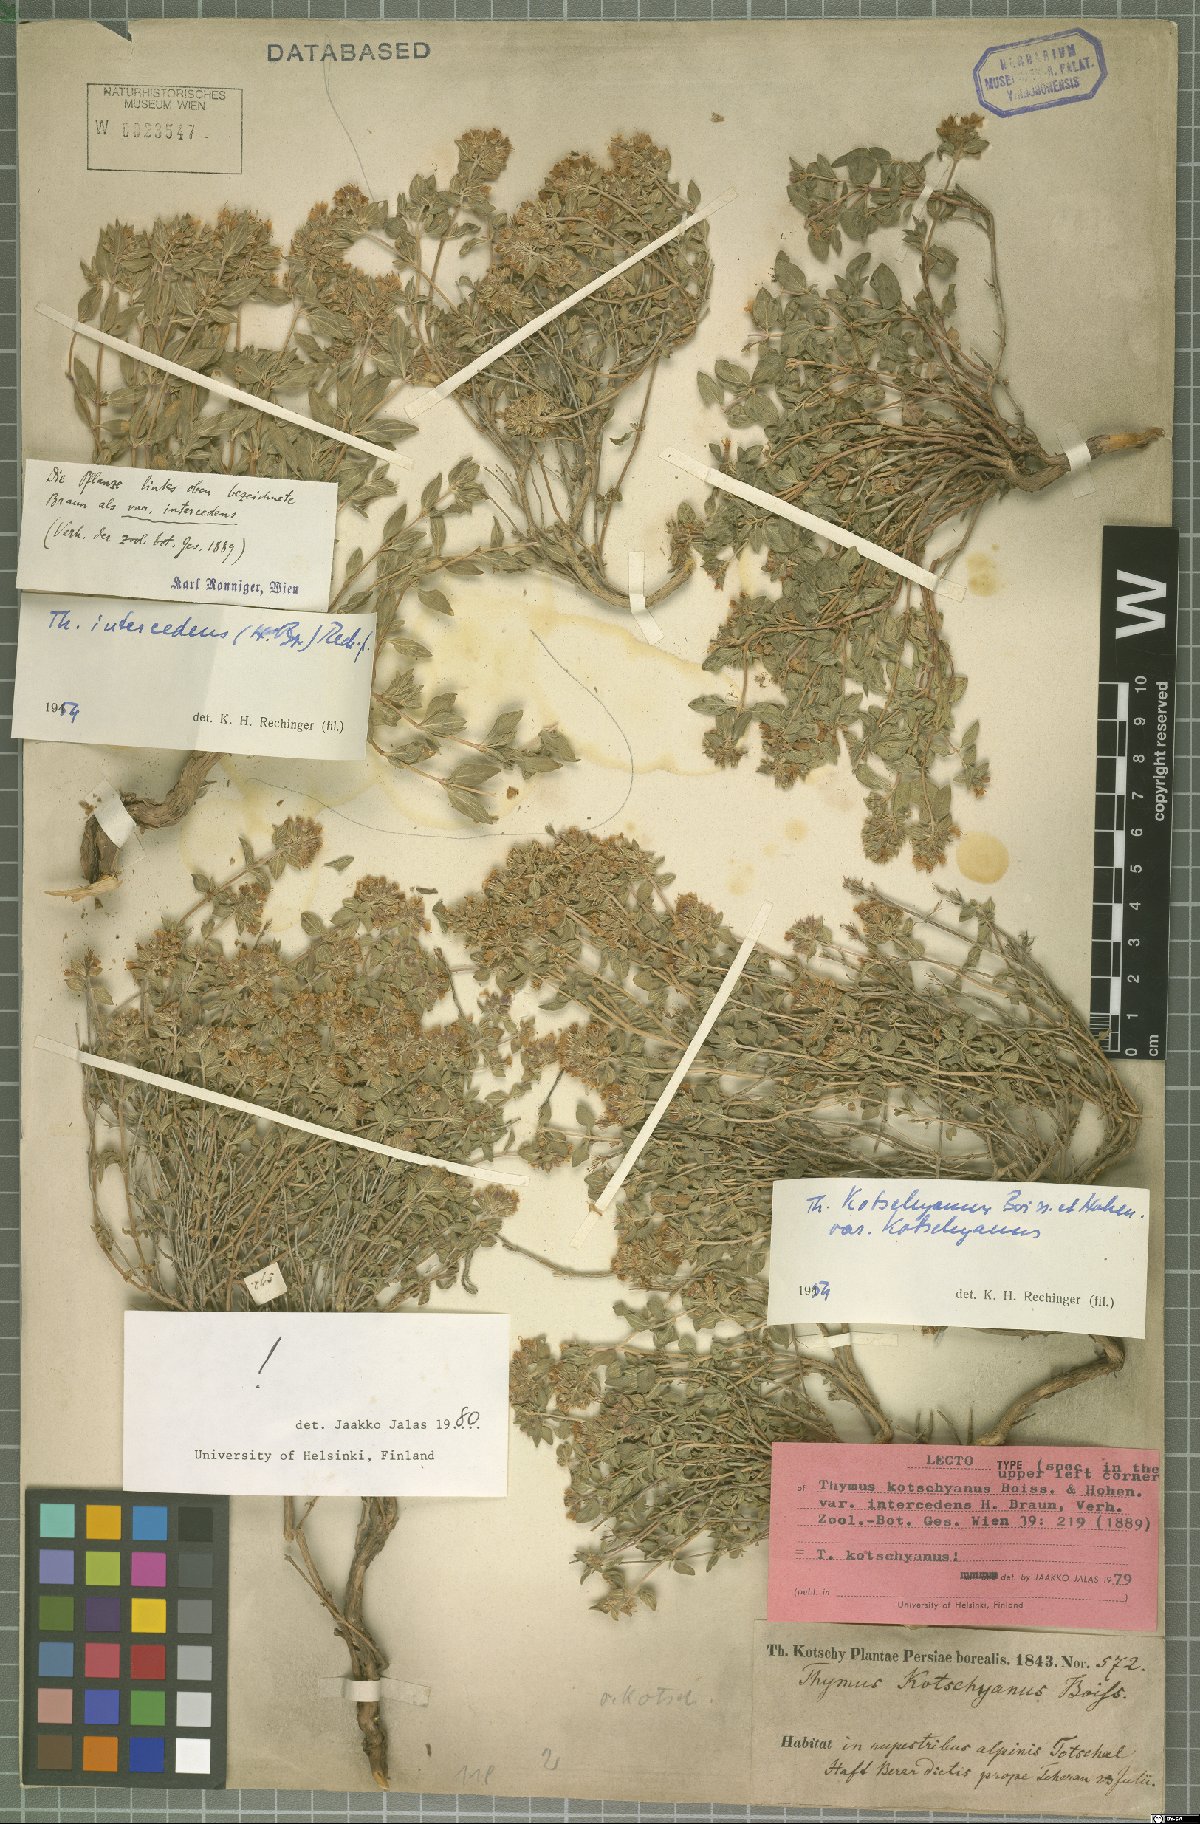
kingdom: Plantae
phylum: Tracheophyta
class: Magnoliopsida
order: Lamiales
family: Lamiaceae
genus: Thymus
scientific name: Thymus kotschyanus
